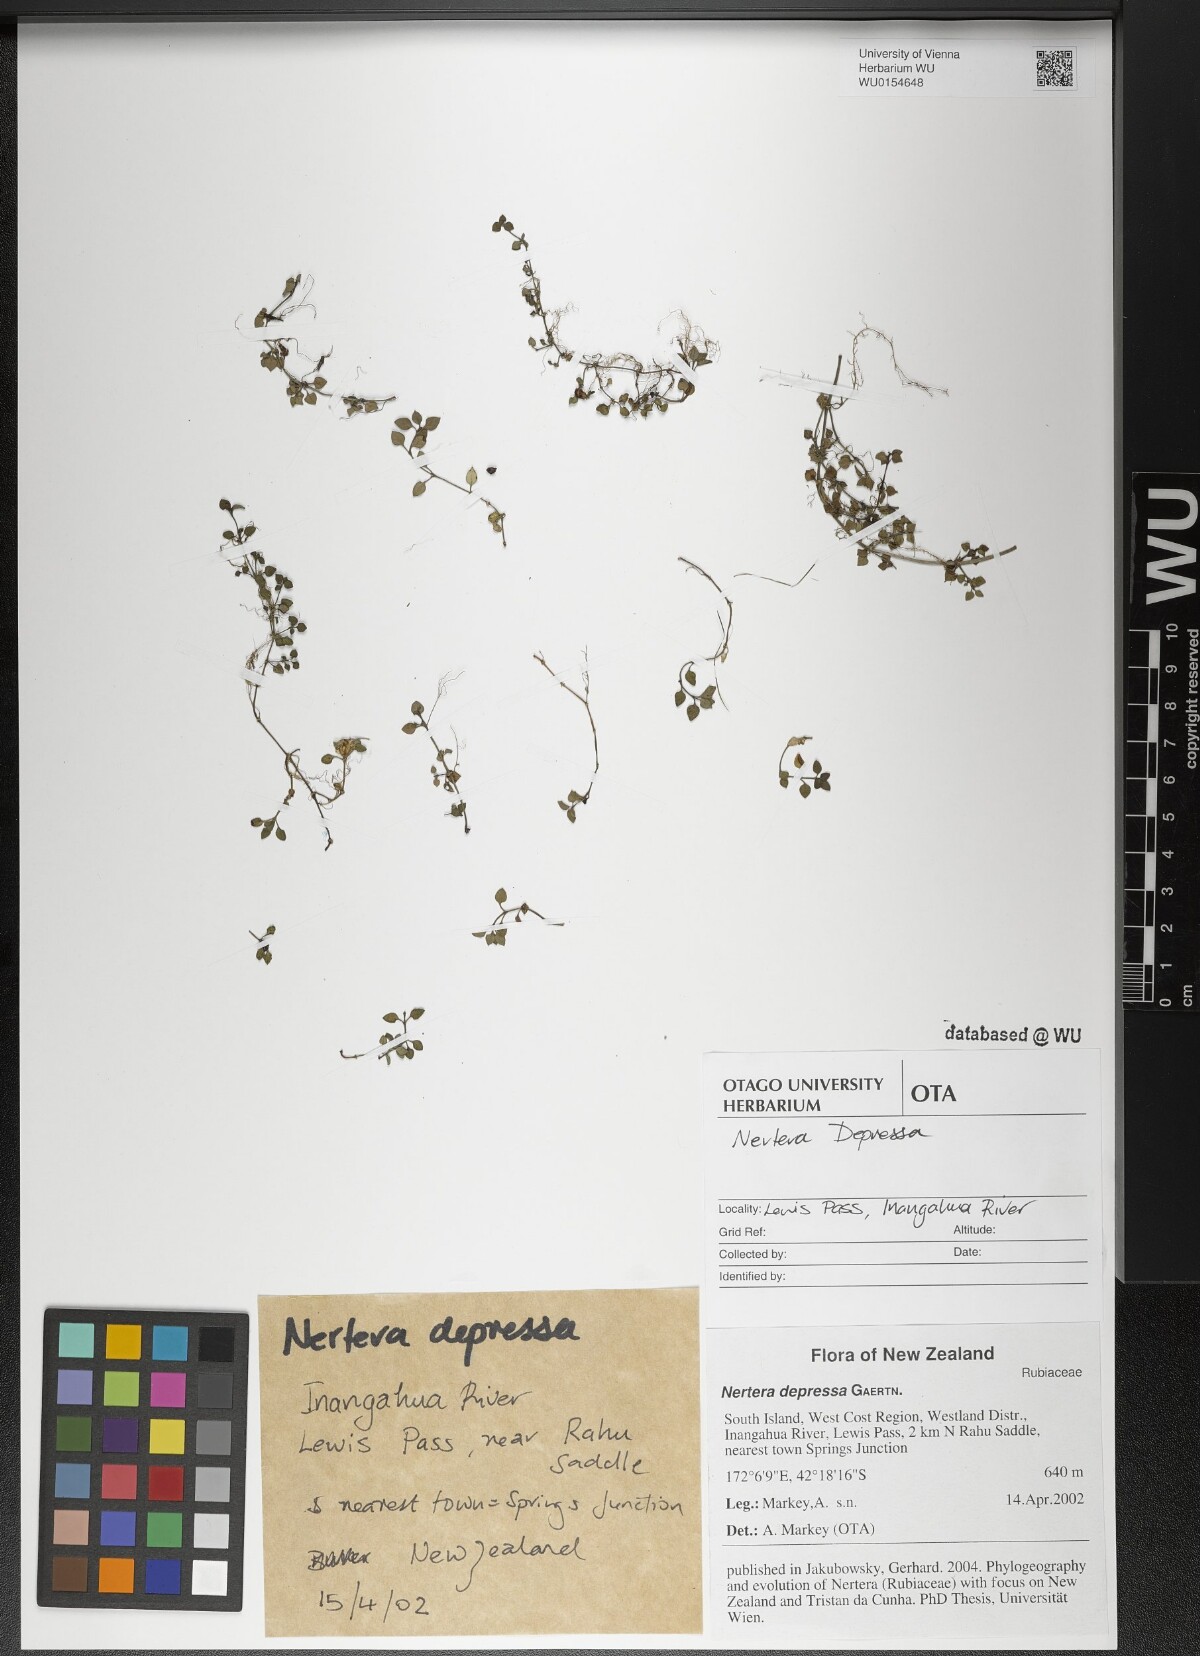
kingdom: Plantae
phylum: Tracheophyta
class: Magnoliopsida
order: Gentianales
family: Rubiaceae
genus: Nertera
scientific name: Nertera granadensis
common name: Beadplant
